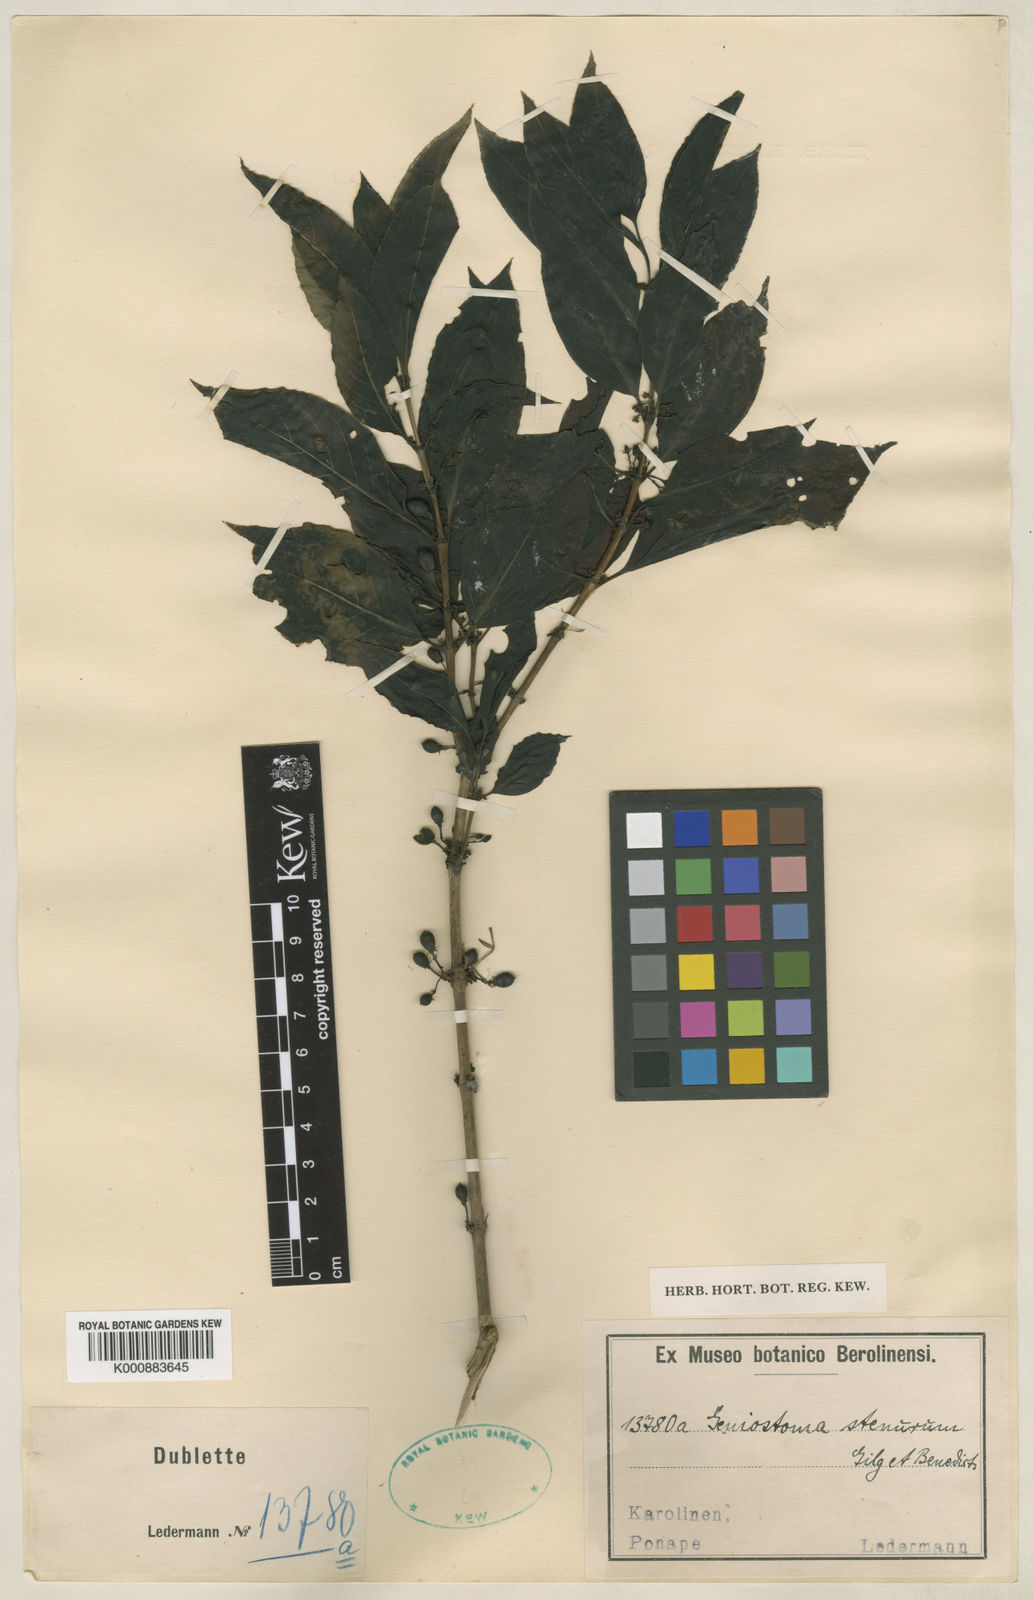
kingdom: Plantae
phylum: Tracheophyta
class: Magnoliopsida
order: Gentianales
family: Loganiaceae
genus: Geniostoma
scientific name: Geniostoma rupestre
